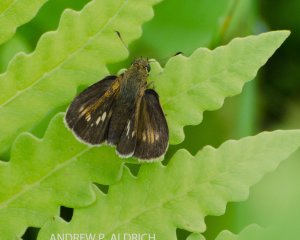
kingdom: Animalia
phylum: Arthropoda
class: Insecta
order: Lepidoptera
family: Hesperiidae
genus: Polites
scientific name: Polites egeremet
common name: Northern Broken-Dash
